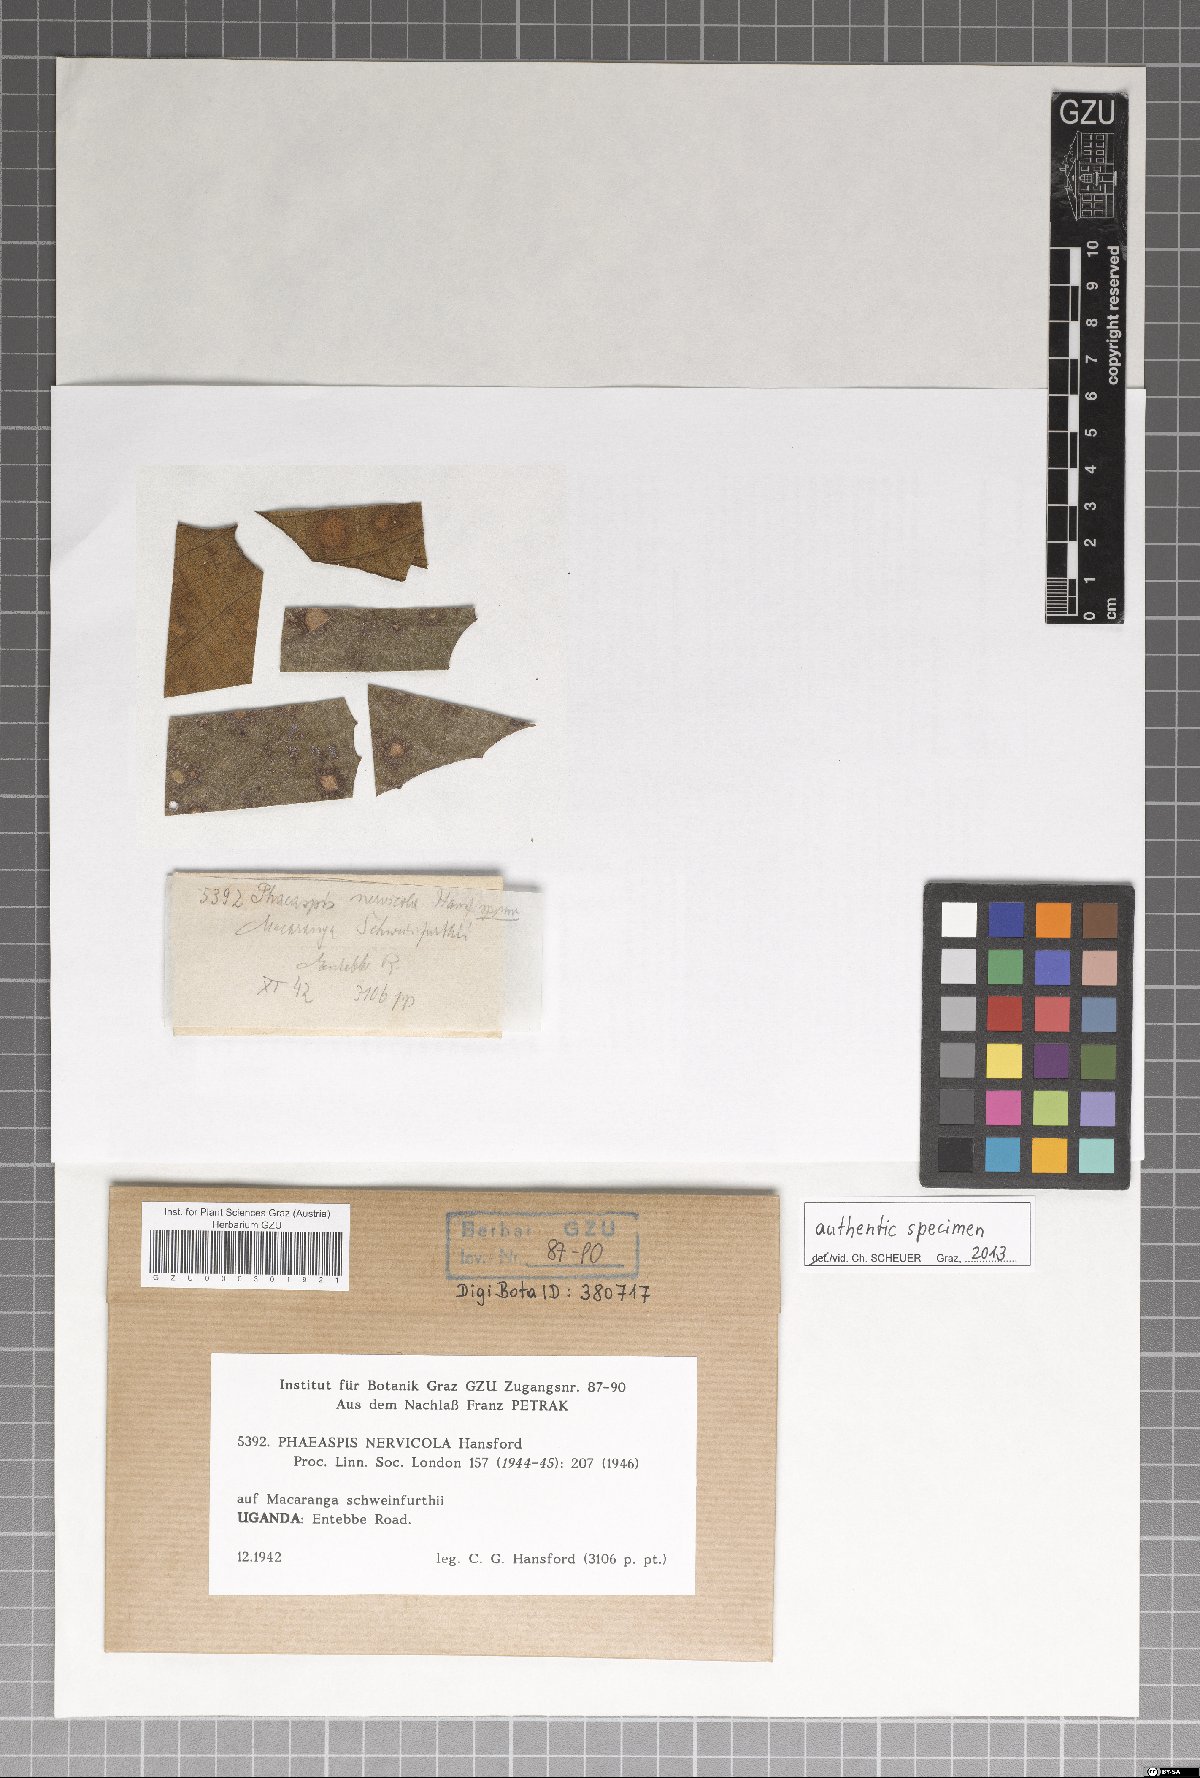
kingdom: Fungi
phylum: Ascomycota
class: Sordariomycetes
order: Phomatosporales
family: Phomatosporaceae
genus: Phaeaspis
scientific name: Phaeaspis nervicola
